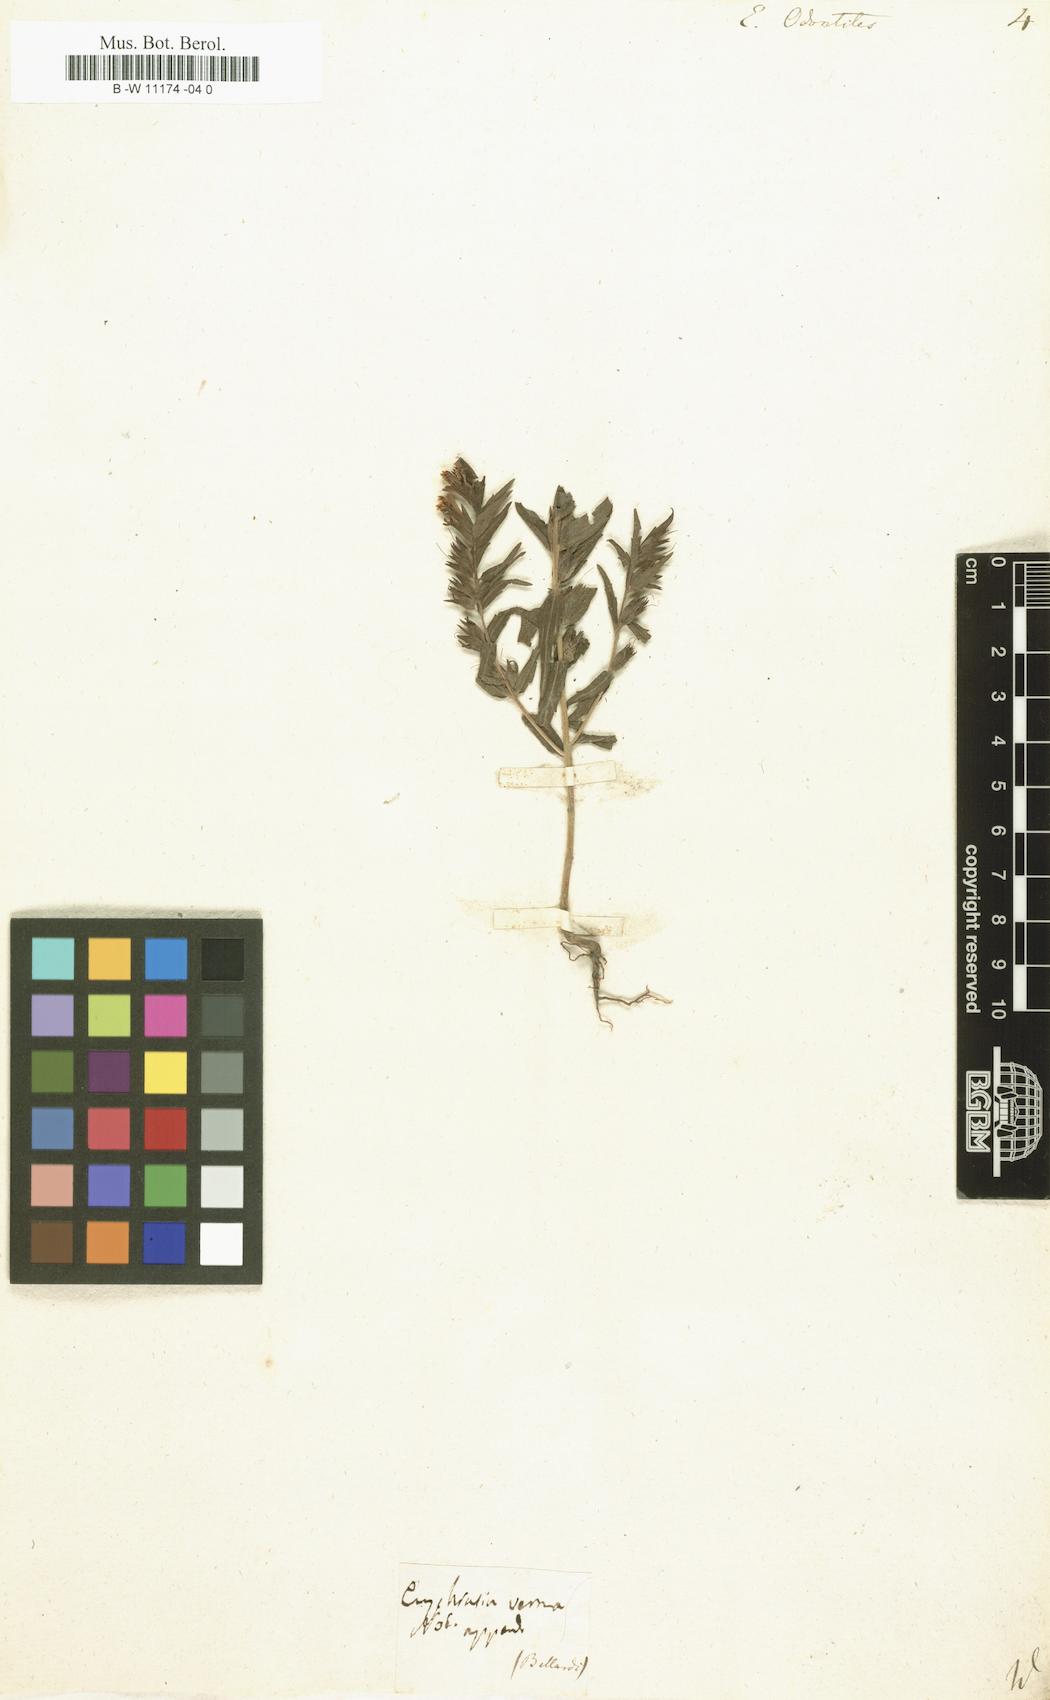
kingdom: Plantae
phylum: Tracheophyta
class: Magnoliopsida
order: Lamiales
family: Orobanchaceae
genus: Odontites
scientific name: Odontites vulgaris
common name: Broomrape
